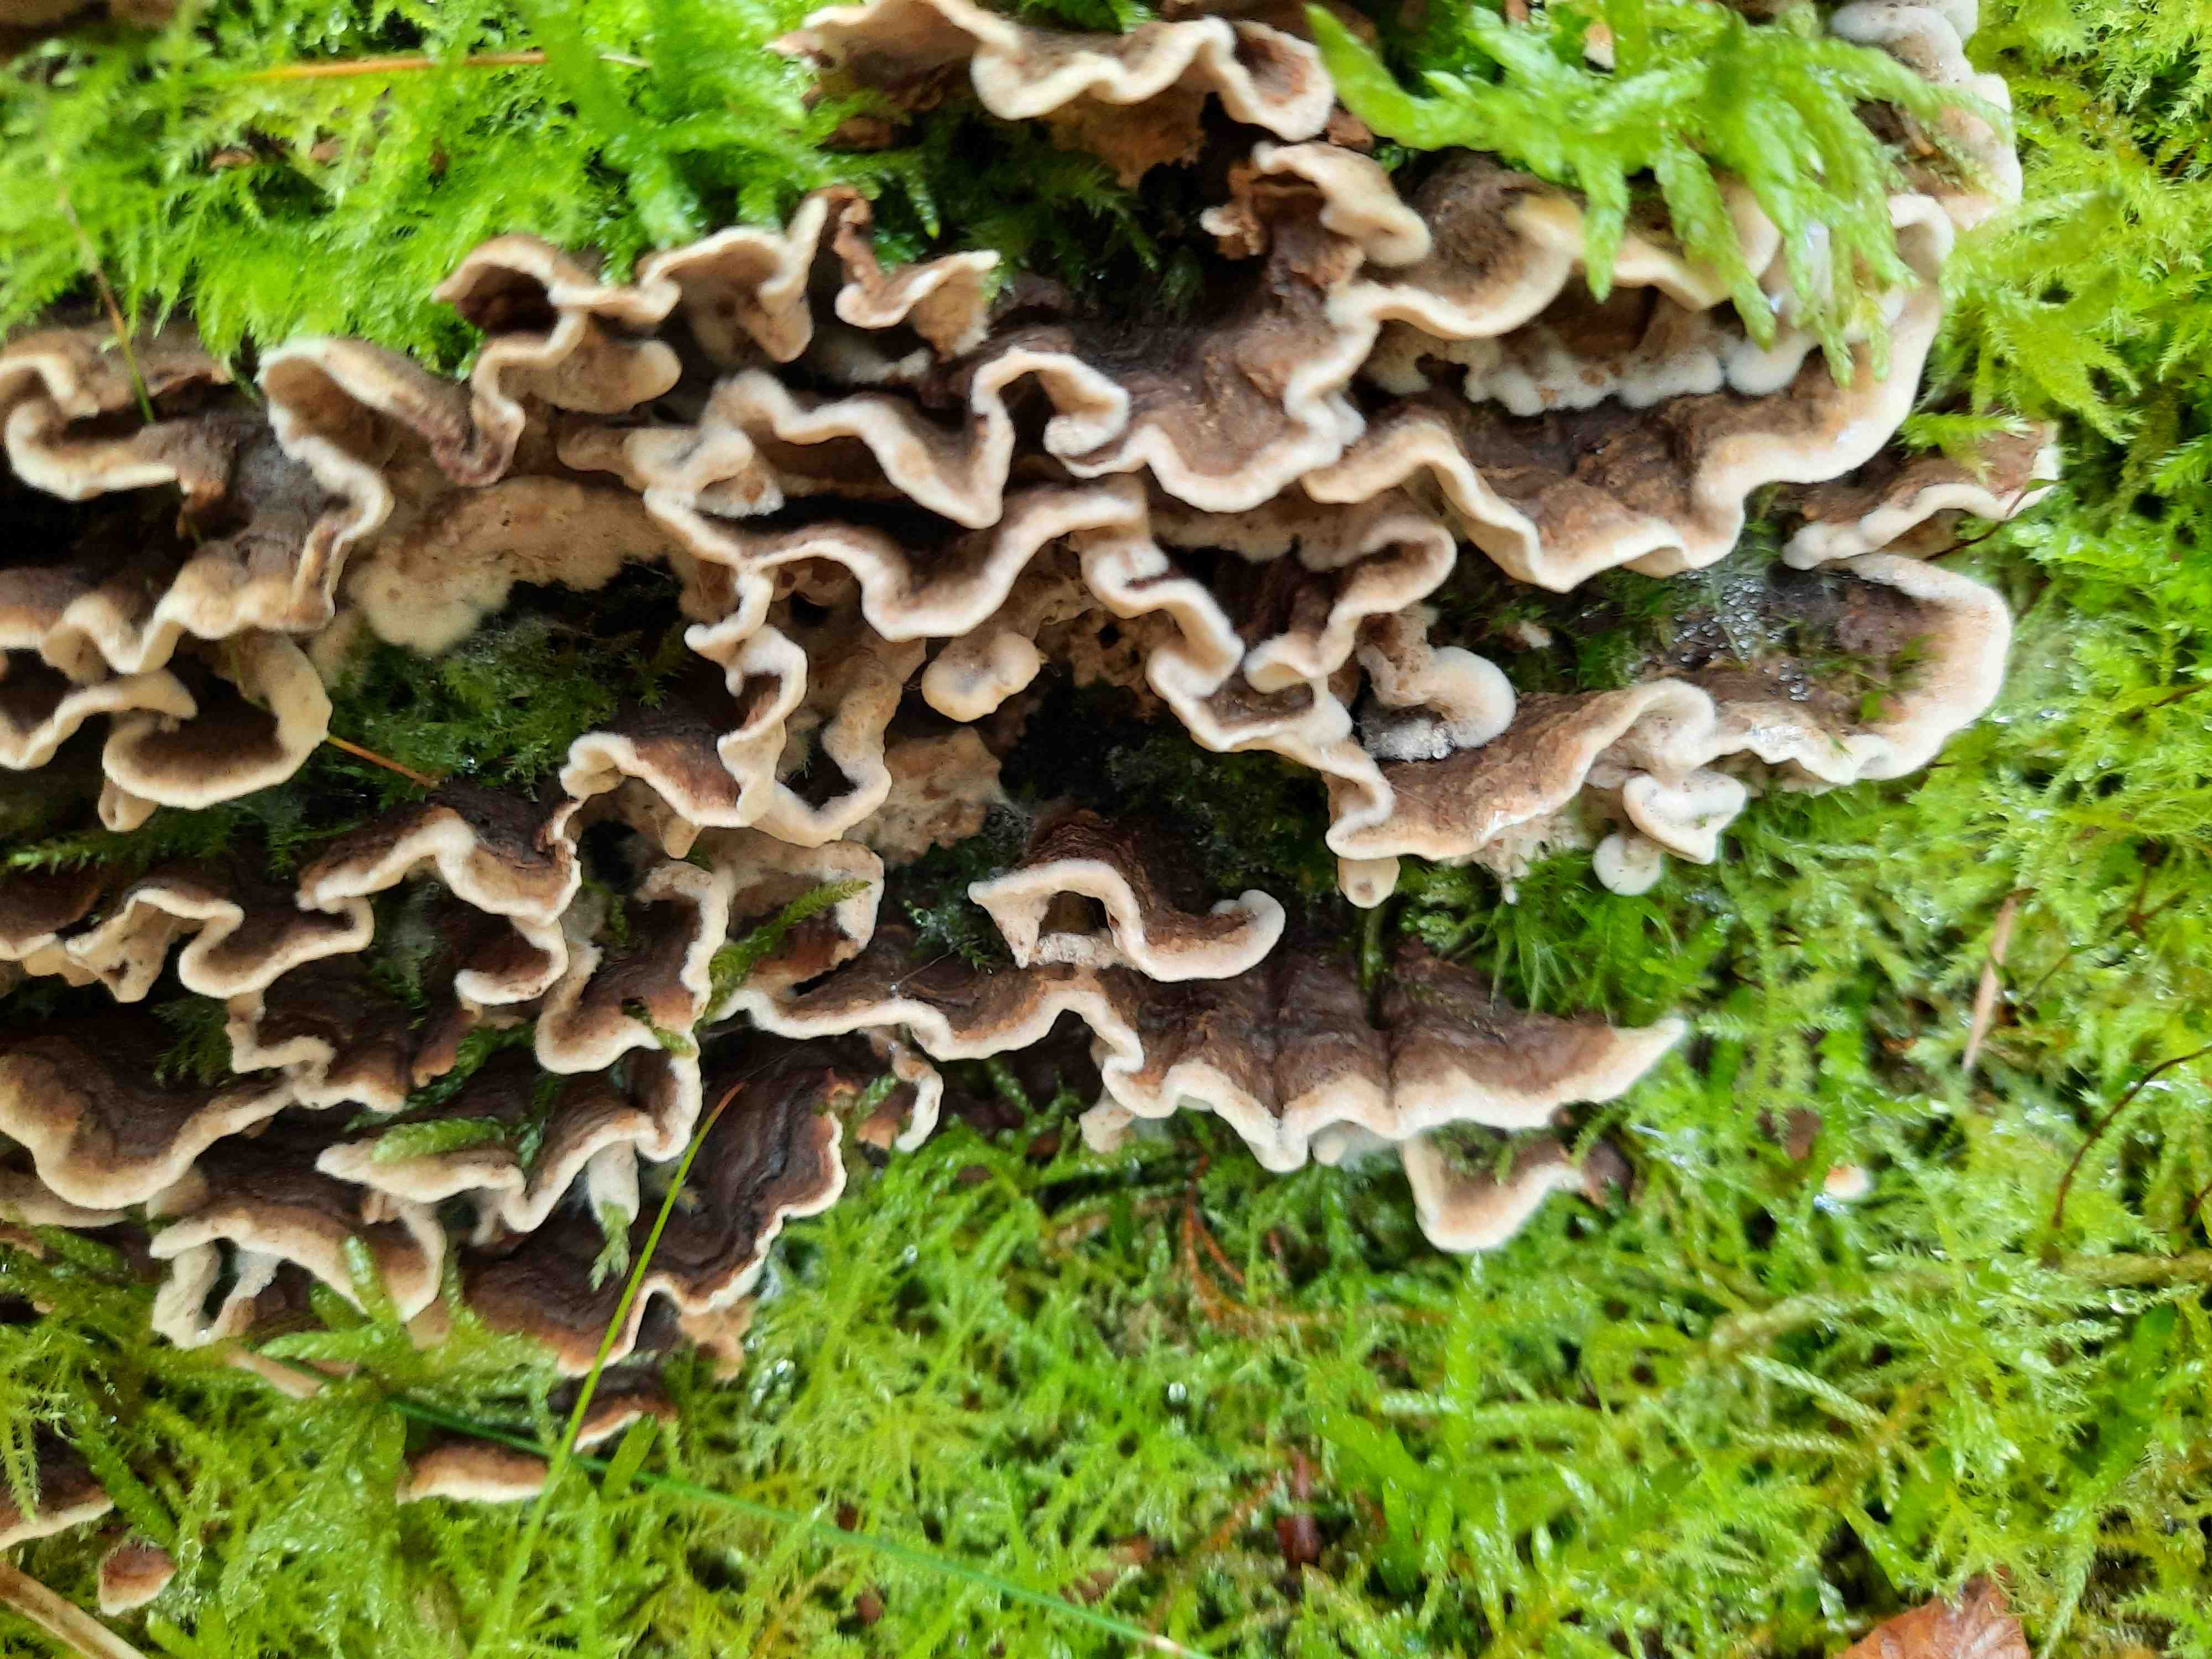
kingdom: Fungi
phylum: Basidiomycota
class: Agaricomycetes
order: Russulales
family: Hericiaceae
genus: Laxitextum
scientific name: Laxitextum bicolor
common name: tvefarvet filtskind
